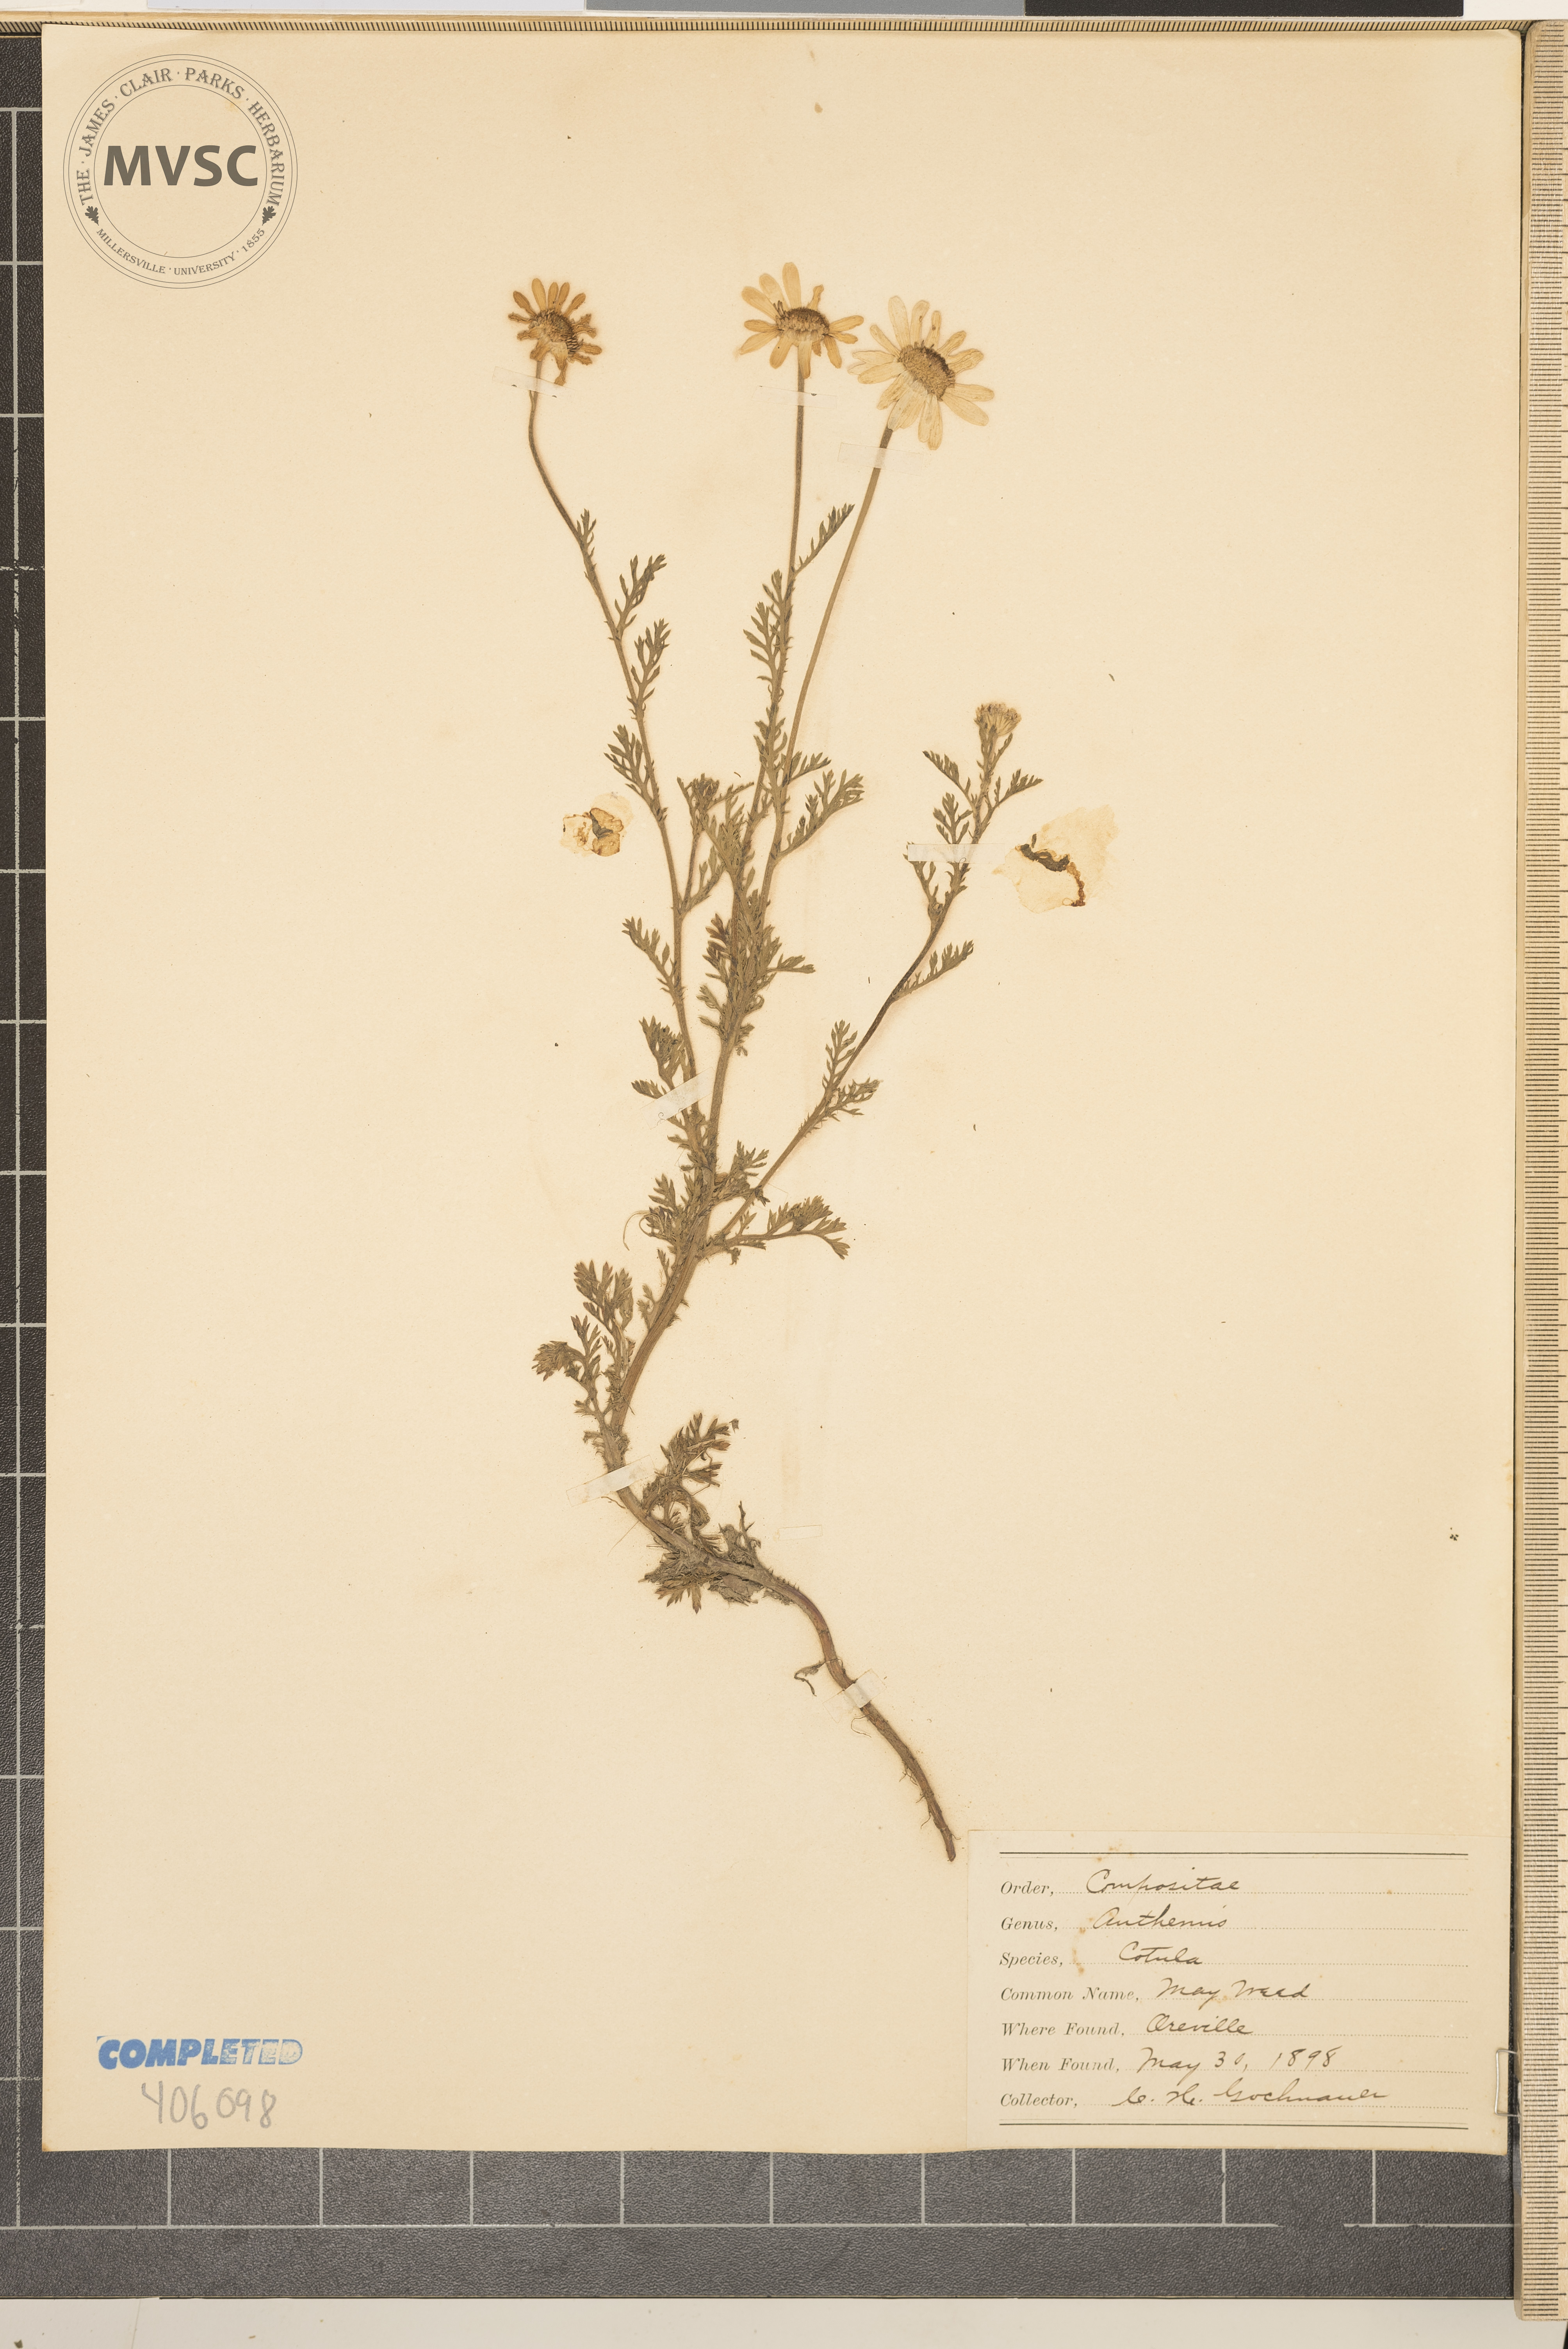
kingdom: Plantae
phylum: Tracheophyta
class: Magnoliopsida
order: Asterales
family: Asteraceae
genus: Anthemis
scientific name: Anthemis cotula
